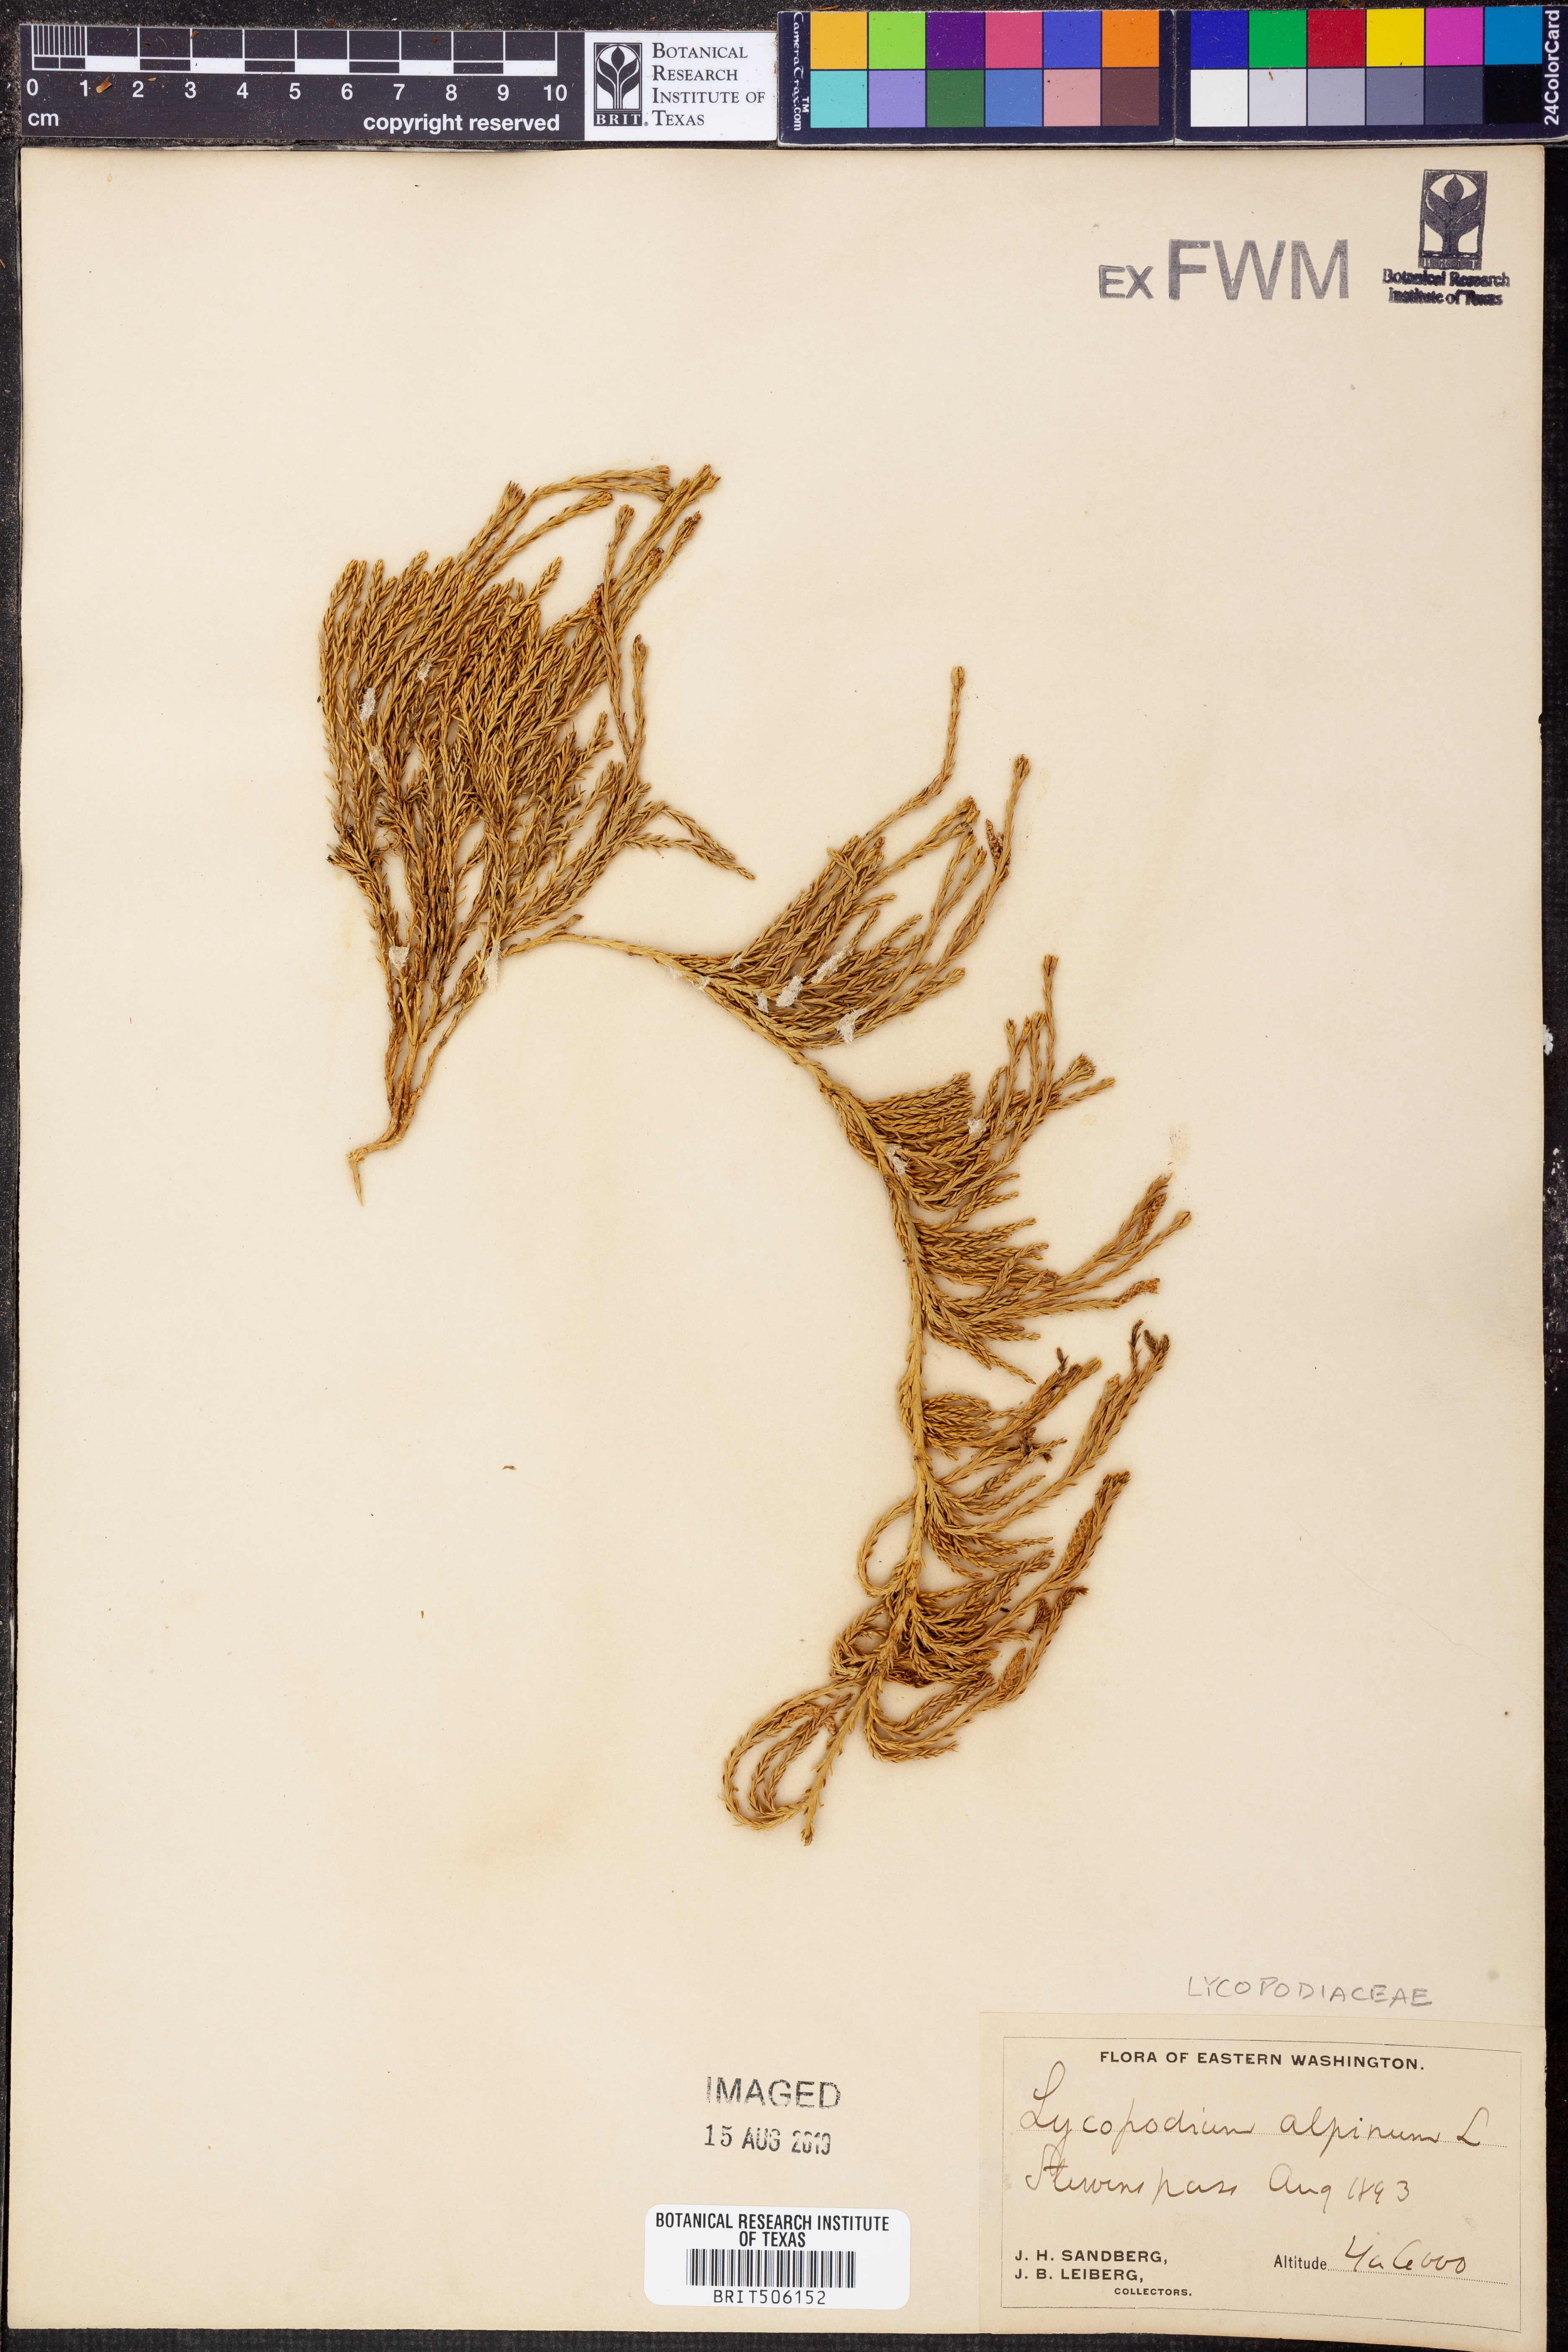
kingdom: Plantae
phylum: Tracheophyta
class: Lycopodiopsida
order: Lycopodiales
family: Lycopodiaceae
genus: Diphasiastrum
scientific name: Diphasiastrum alpinum
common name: Alpine clubmoss
